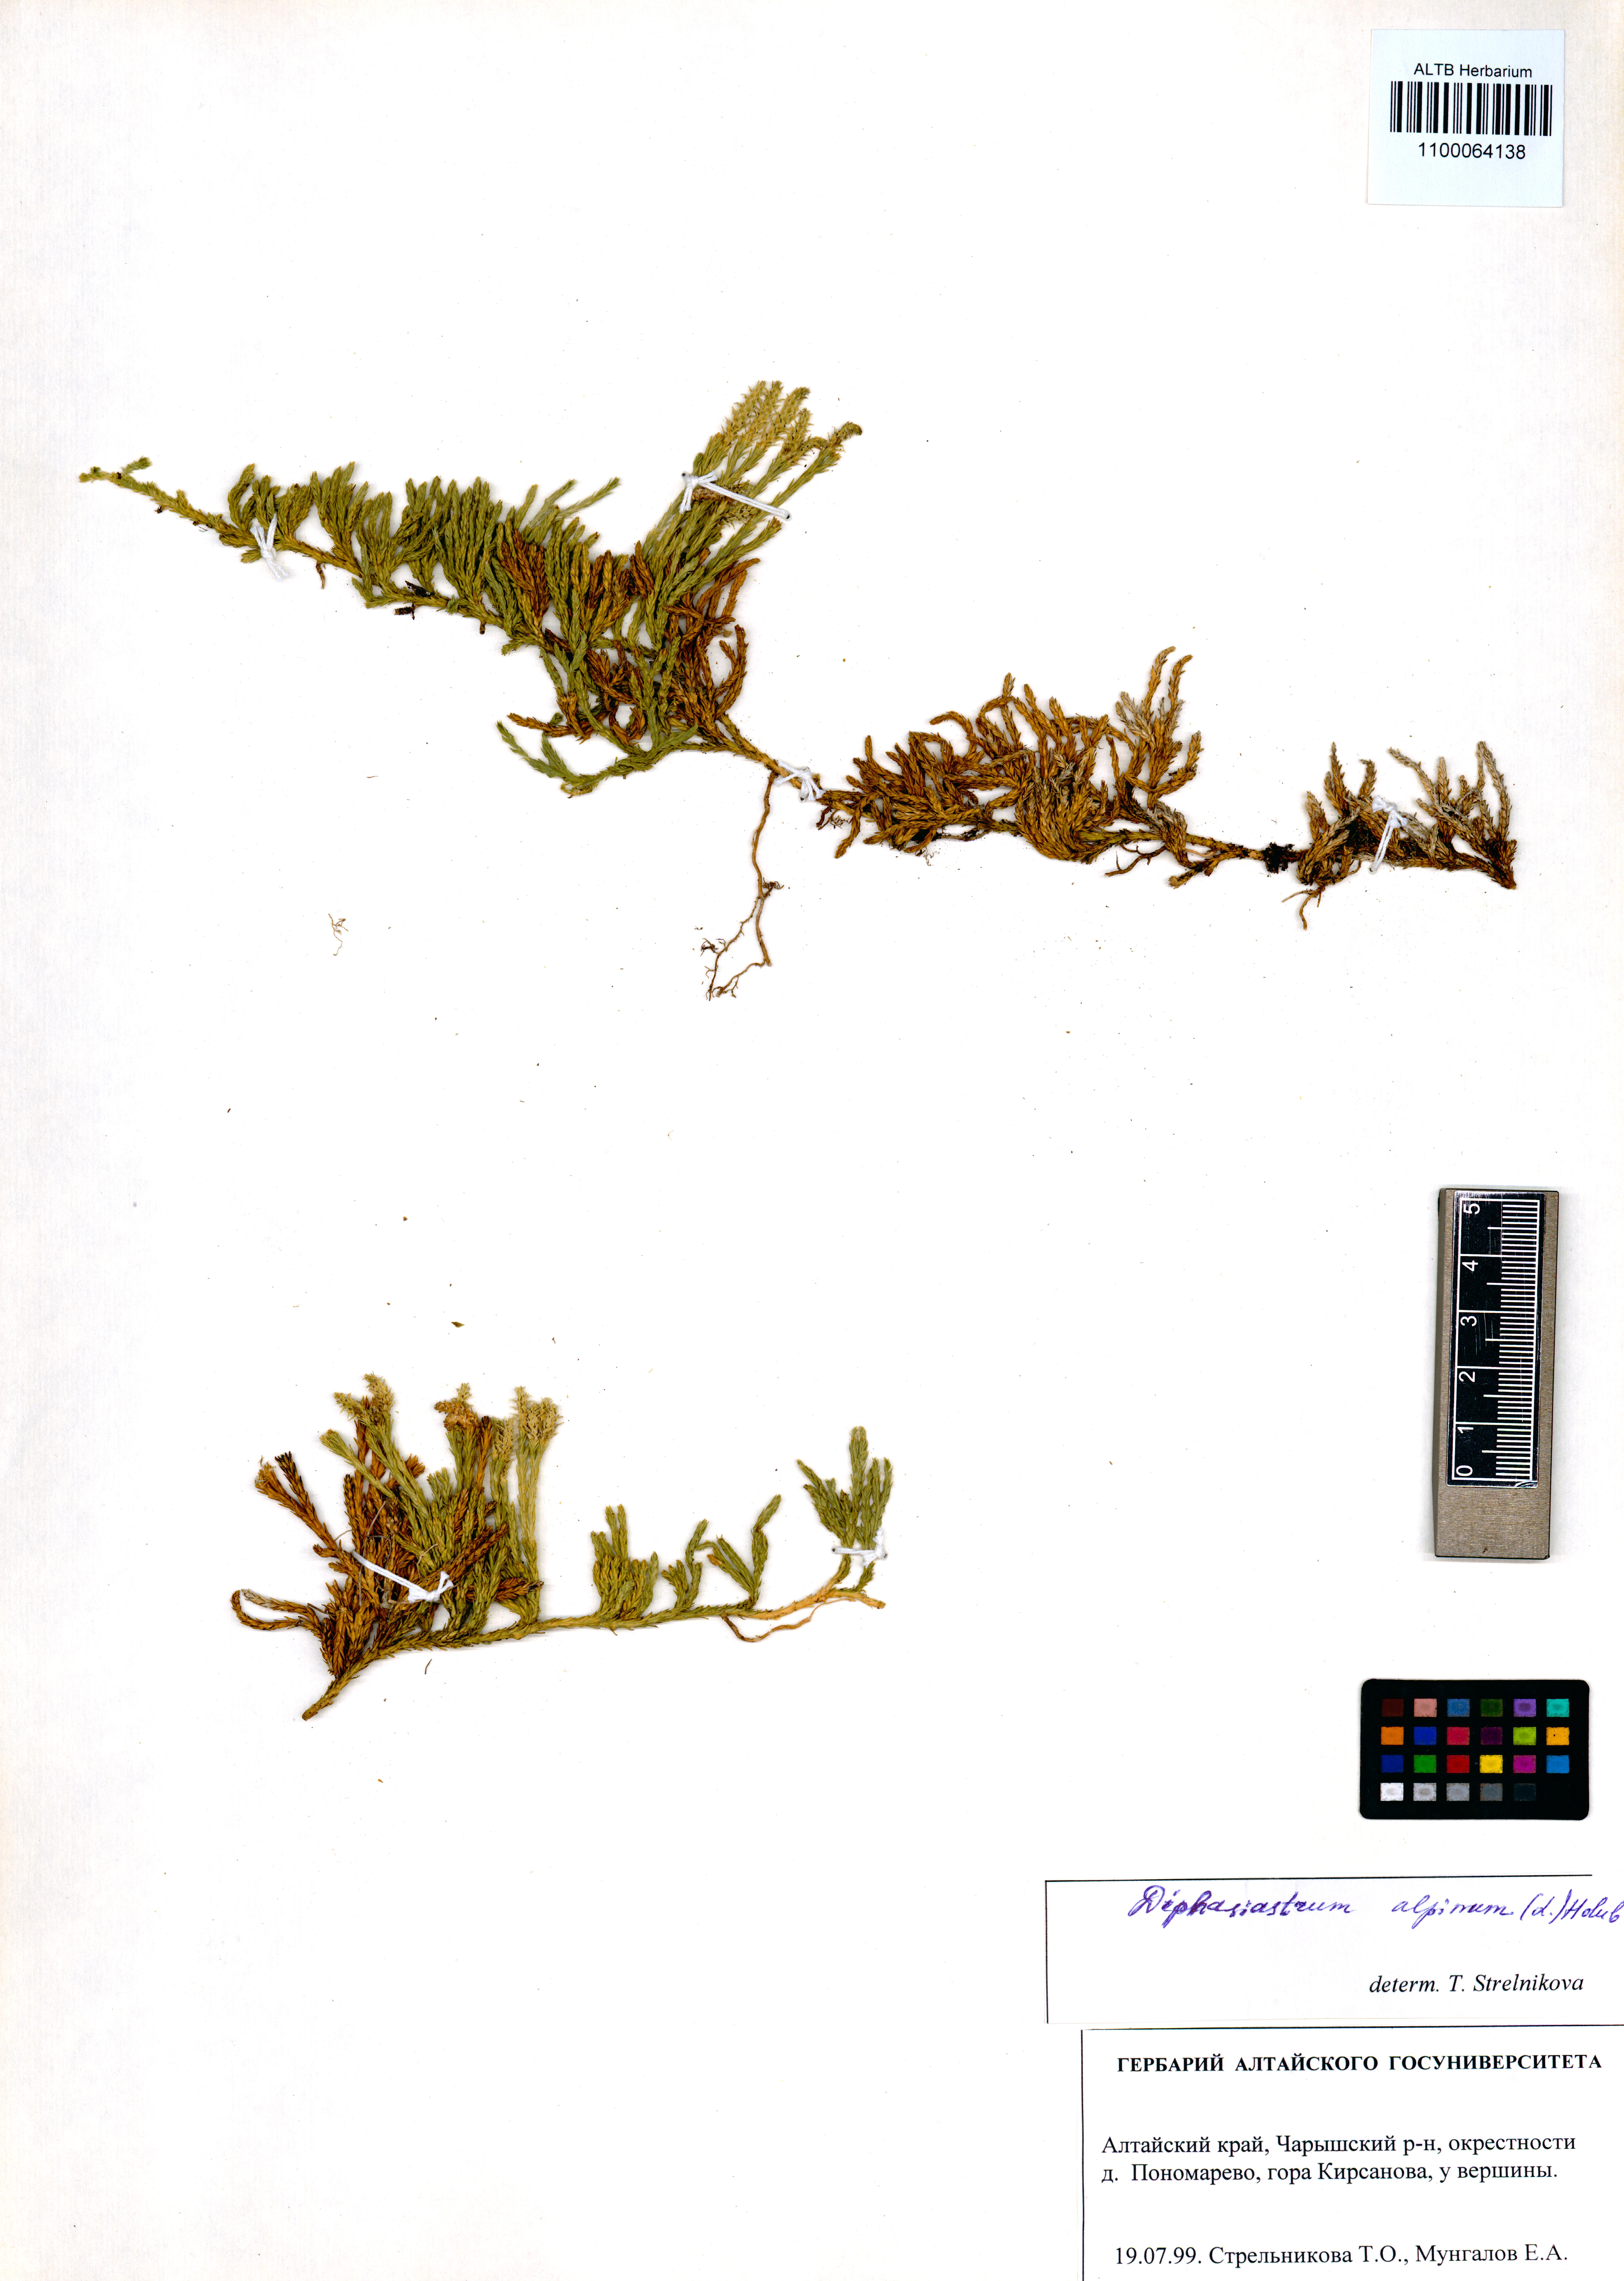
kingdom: Plantae
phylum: Tracheophyta
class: Lycopodiopsida
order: Lycopodiales
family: Lycopodiaceae
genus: Diphasiastrum
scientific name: Diphasiastrum alpinum
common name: Alpine clubmoss
